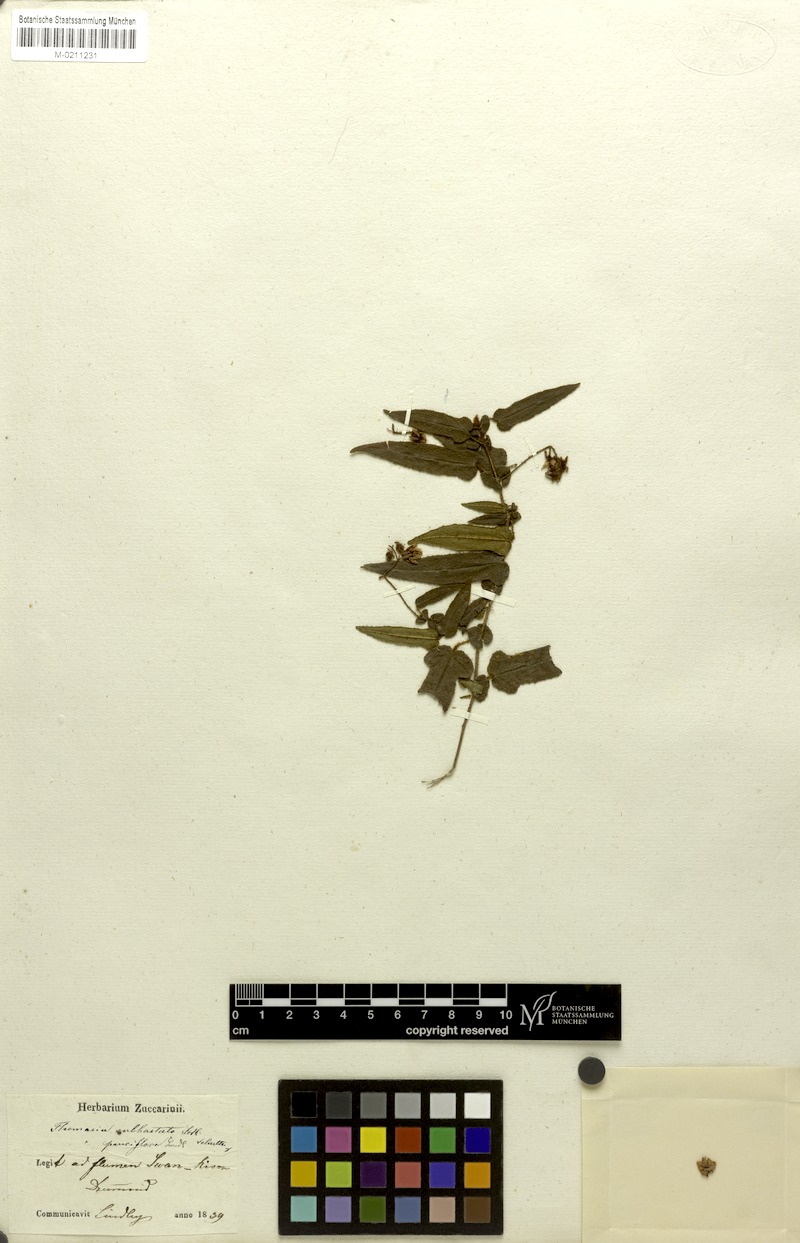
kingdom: Plantae
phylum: Tracheophyta
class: Magnoliopsida
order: Malvales
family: Malvaceae
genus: Thomasia
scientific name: Thomasia pauciflora
